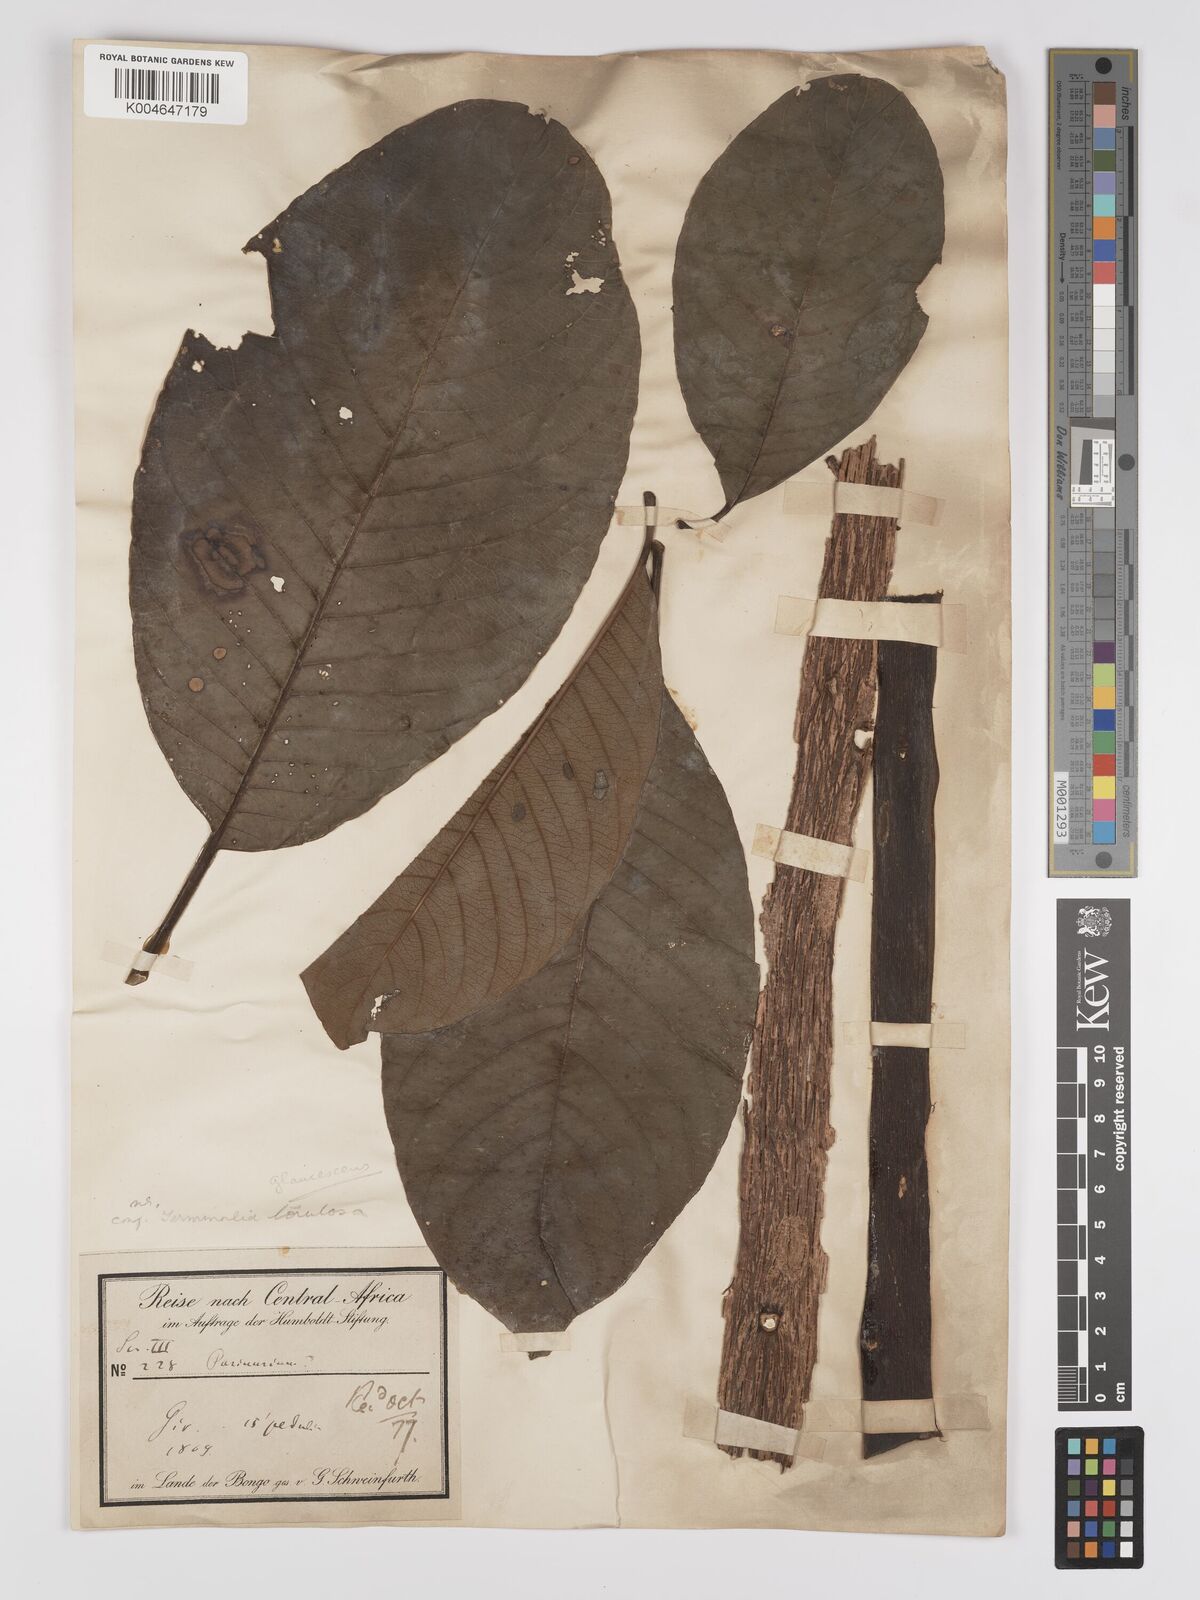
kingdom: Plantae
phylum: Tracheophyta
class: Magnoliopsida
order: Myrtales
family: Combretaceae
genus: Terminalia
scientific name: Terminalia schimperiana
